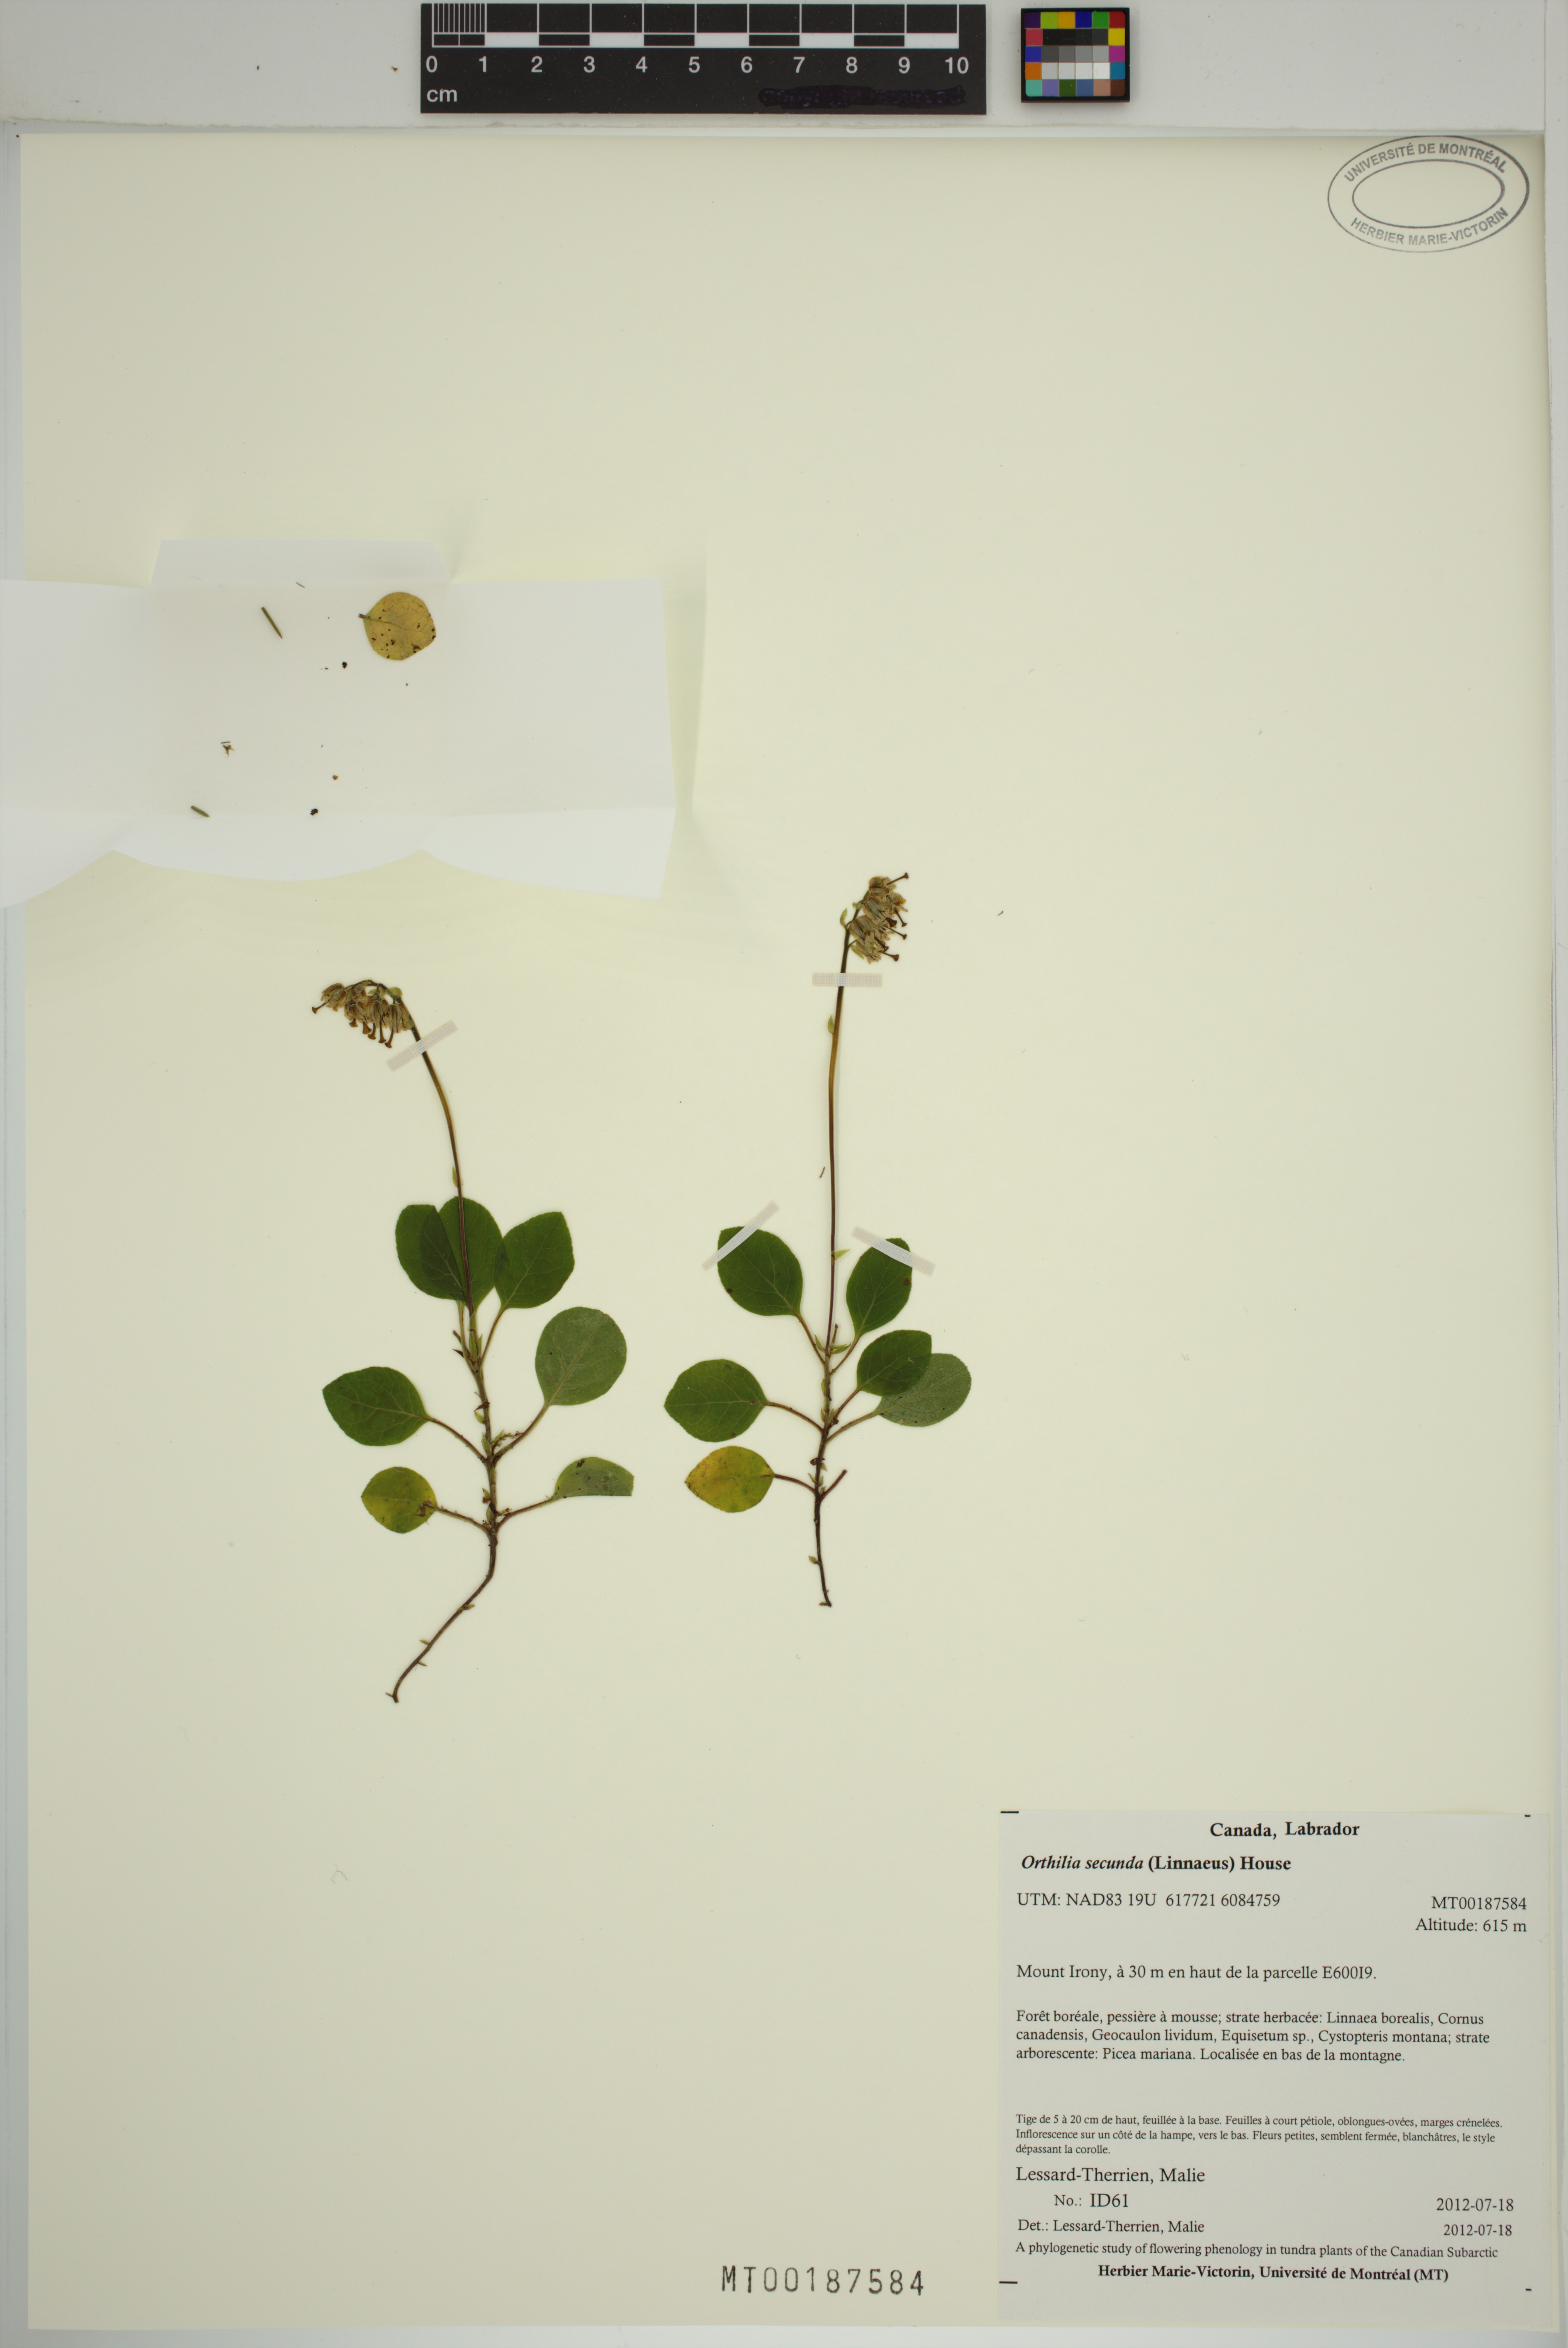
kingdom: Plantae
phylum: Tracheophyta
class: Magnoliopsida
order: Ericales
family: Ericaceae
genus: Orthilia
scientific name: Orthilia secunda
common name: One-sided orthilia
